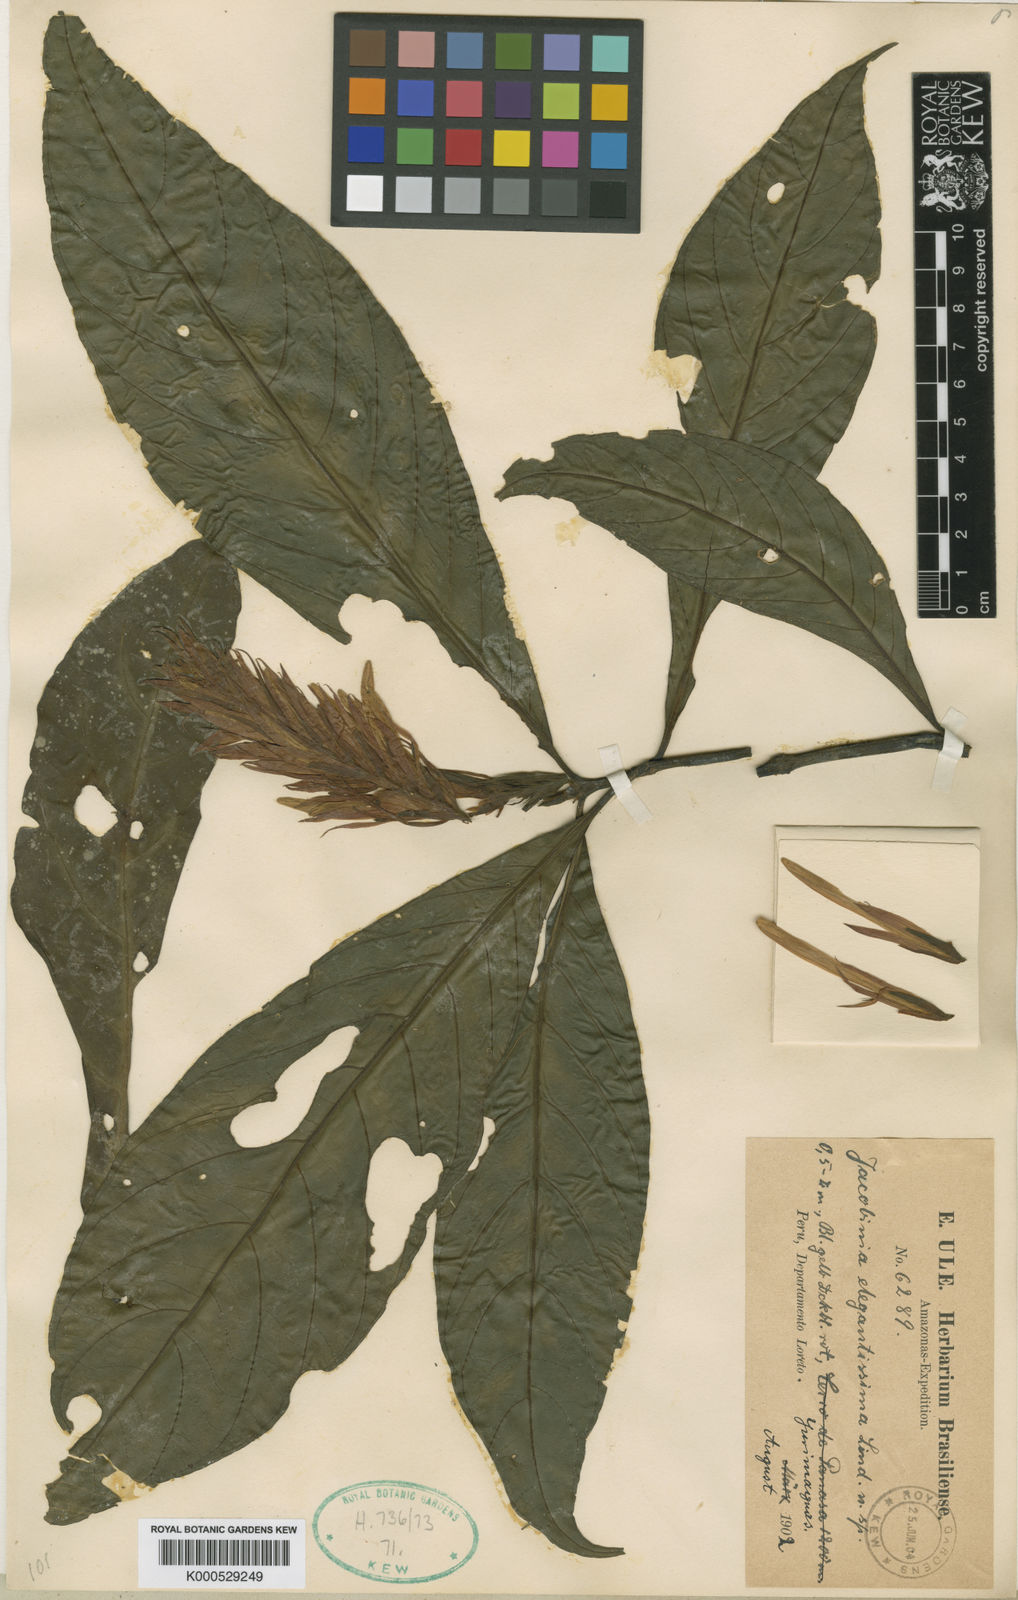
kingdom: Plantae
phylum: Tracheophyta
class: Magnoliopsida
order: Lamiales
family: Acanthaceae
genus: Justicia
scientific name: Justicia elegantissima
